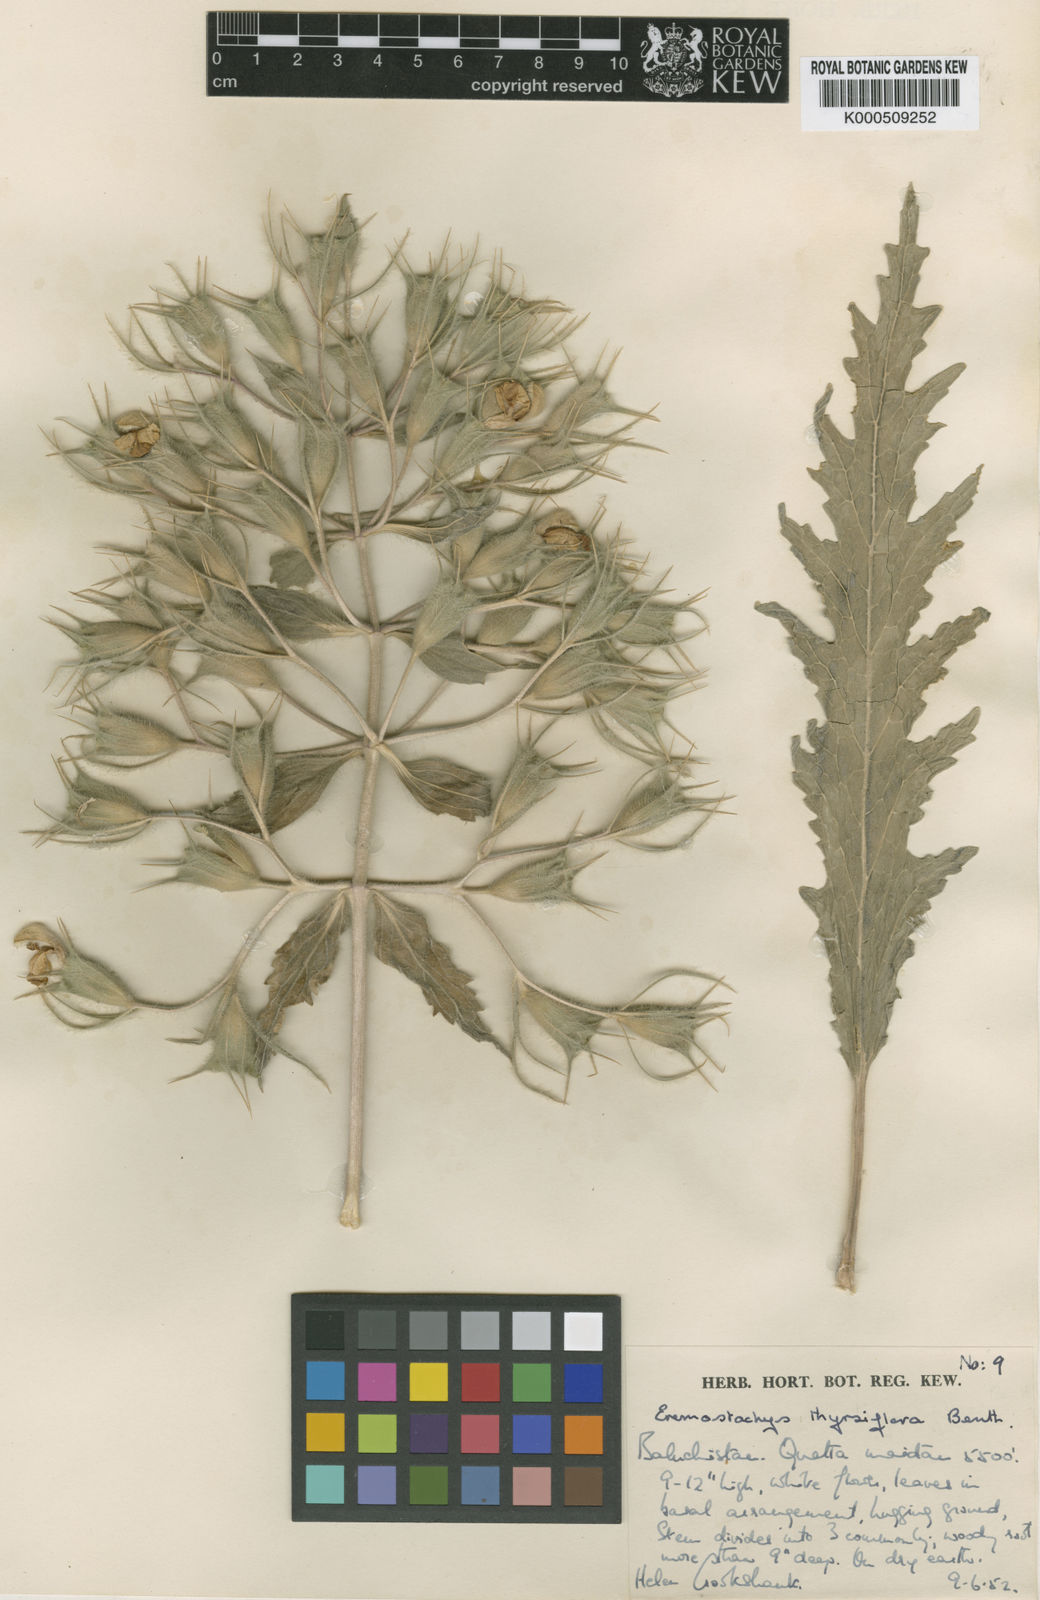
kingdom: Plantae
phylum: Tracheophyta
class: Magnoliopsida
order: Lamiales
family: Lamiaceae
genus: Phlomoides
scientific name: Phlomoides thyrsiflora
